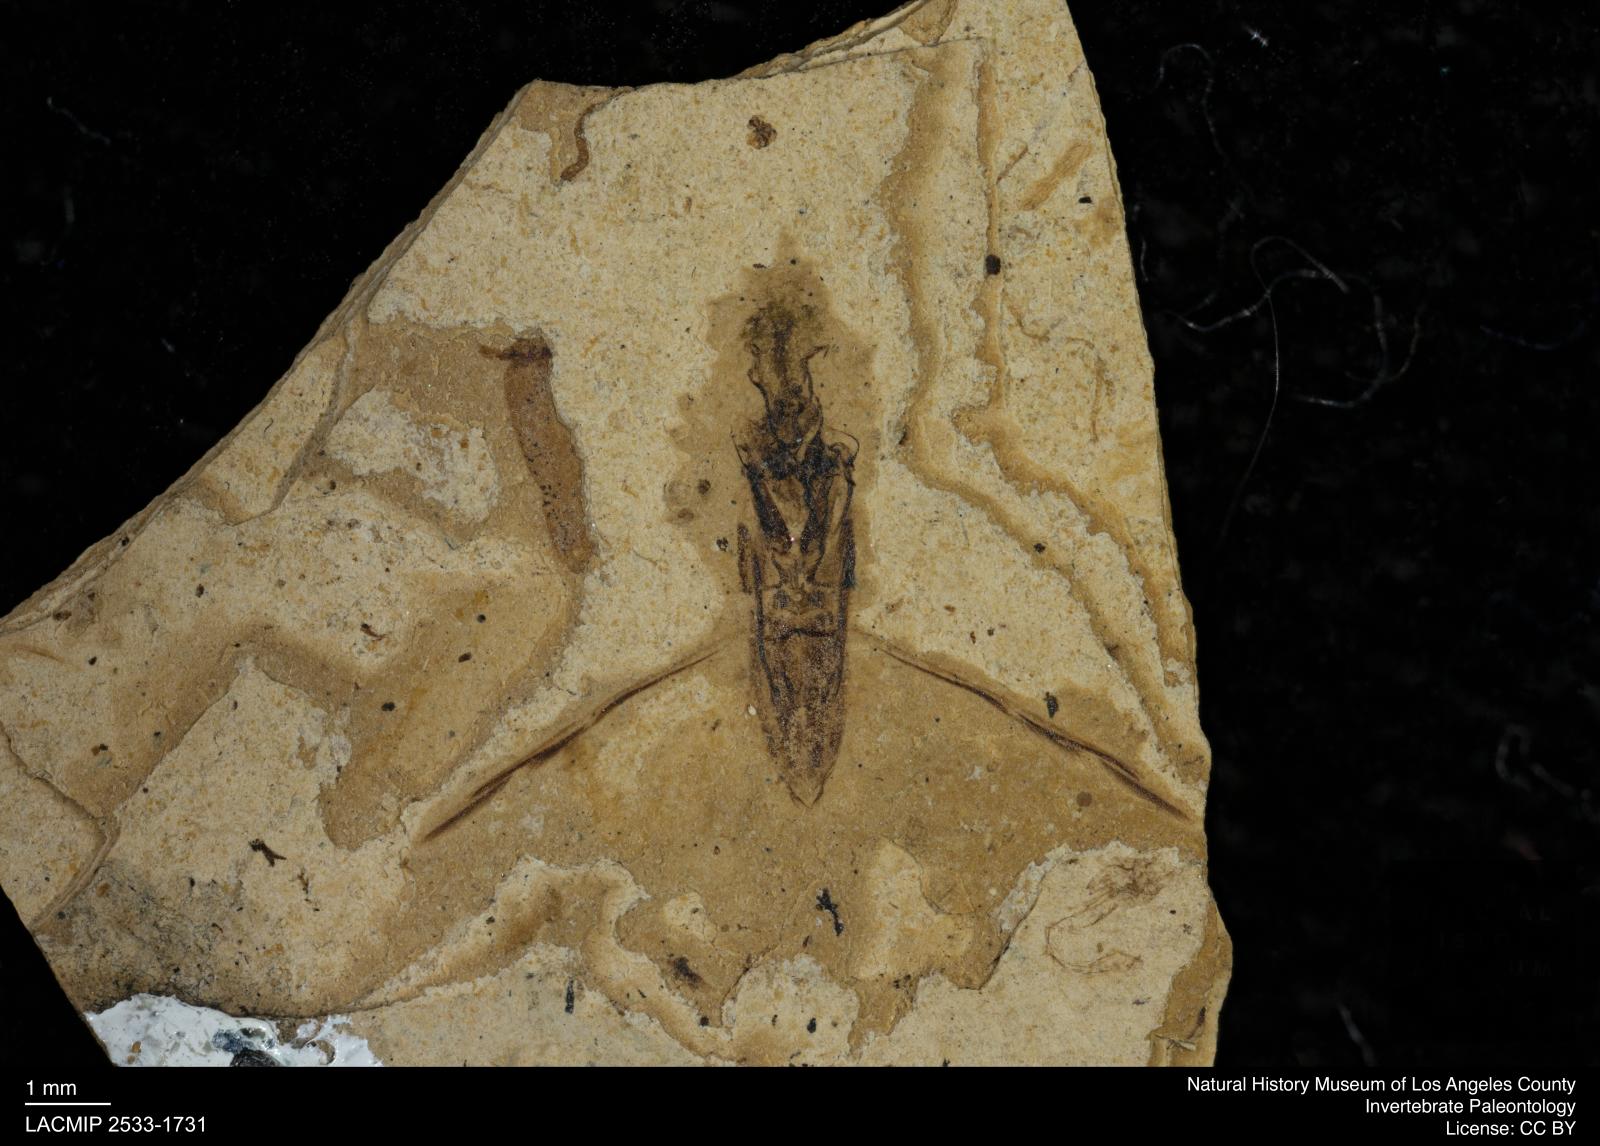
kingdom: Animalia
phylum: Arthropoda
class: Insecta
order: Hemiptera
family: Notonectidae
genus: Notonecta
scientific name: Notonecta
